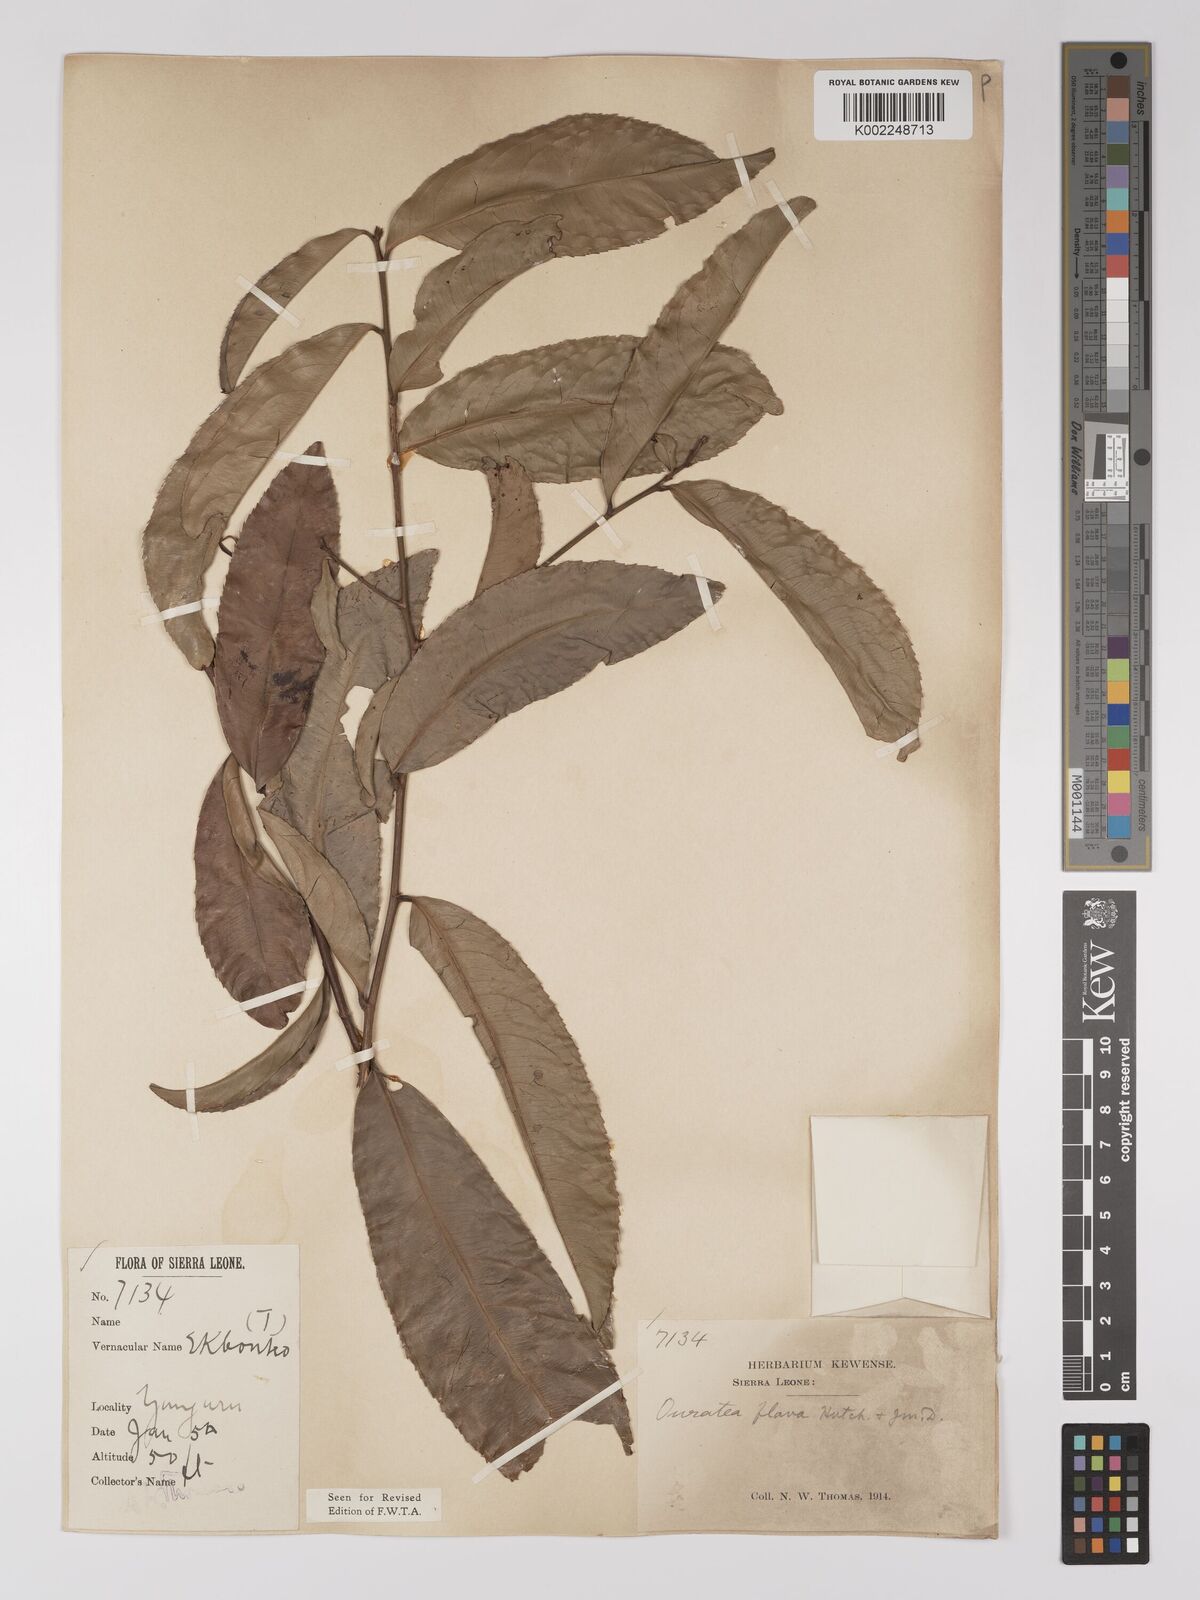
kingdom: Plantae
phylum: Tracheophyta
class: Magnoliopsida
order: Malpighiales
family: Ochnaceae
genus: Campylospermum
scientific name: Campylospermum flavum
